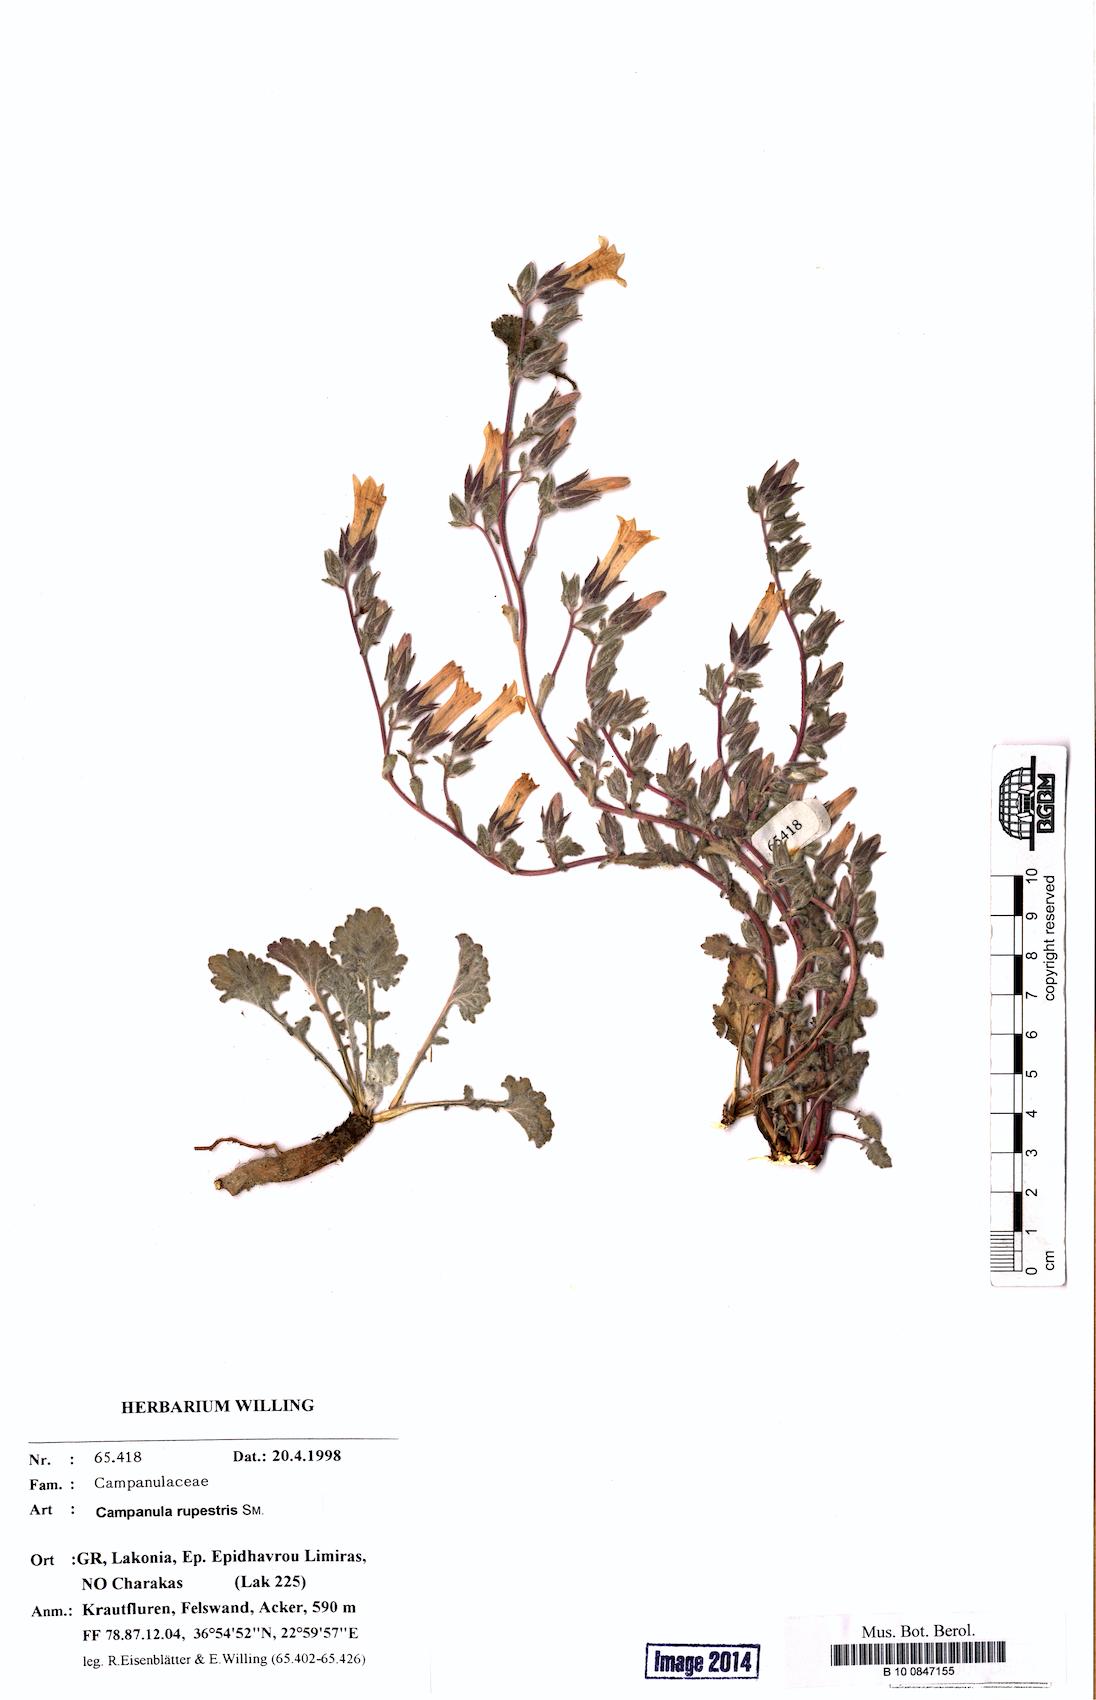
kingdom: Plantae
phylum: Tracheophyta
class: Magnoliopsida
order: Asterales
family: Campanulaceae
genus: Campanula
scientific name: Campanula rupestris
